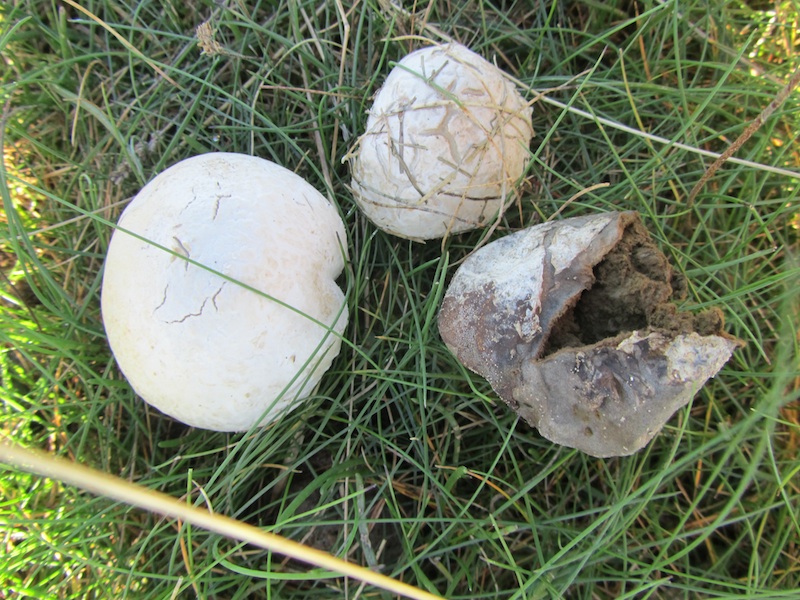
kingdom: Fungi
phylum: Basidiomycota
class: Agaricomycetes
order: Agaricales
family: Lycoperdaceae
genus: Bovista
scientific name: Bovista plumbea
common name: blygrå bovist
